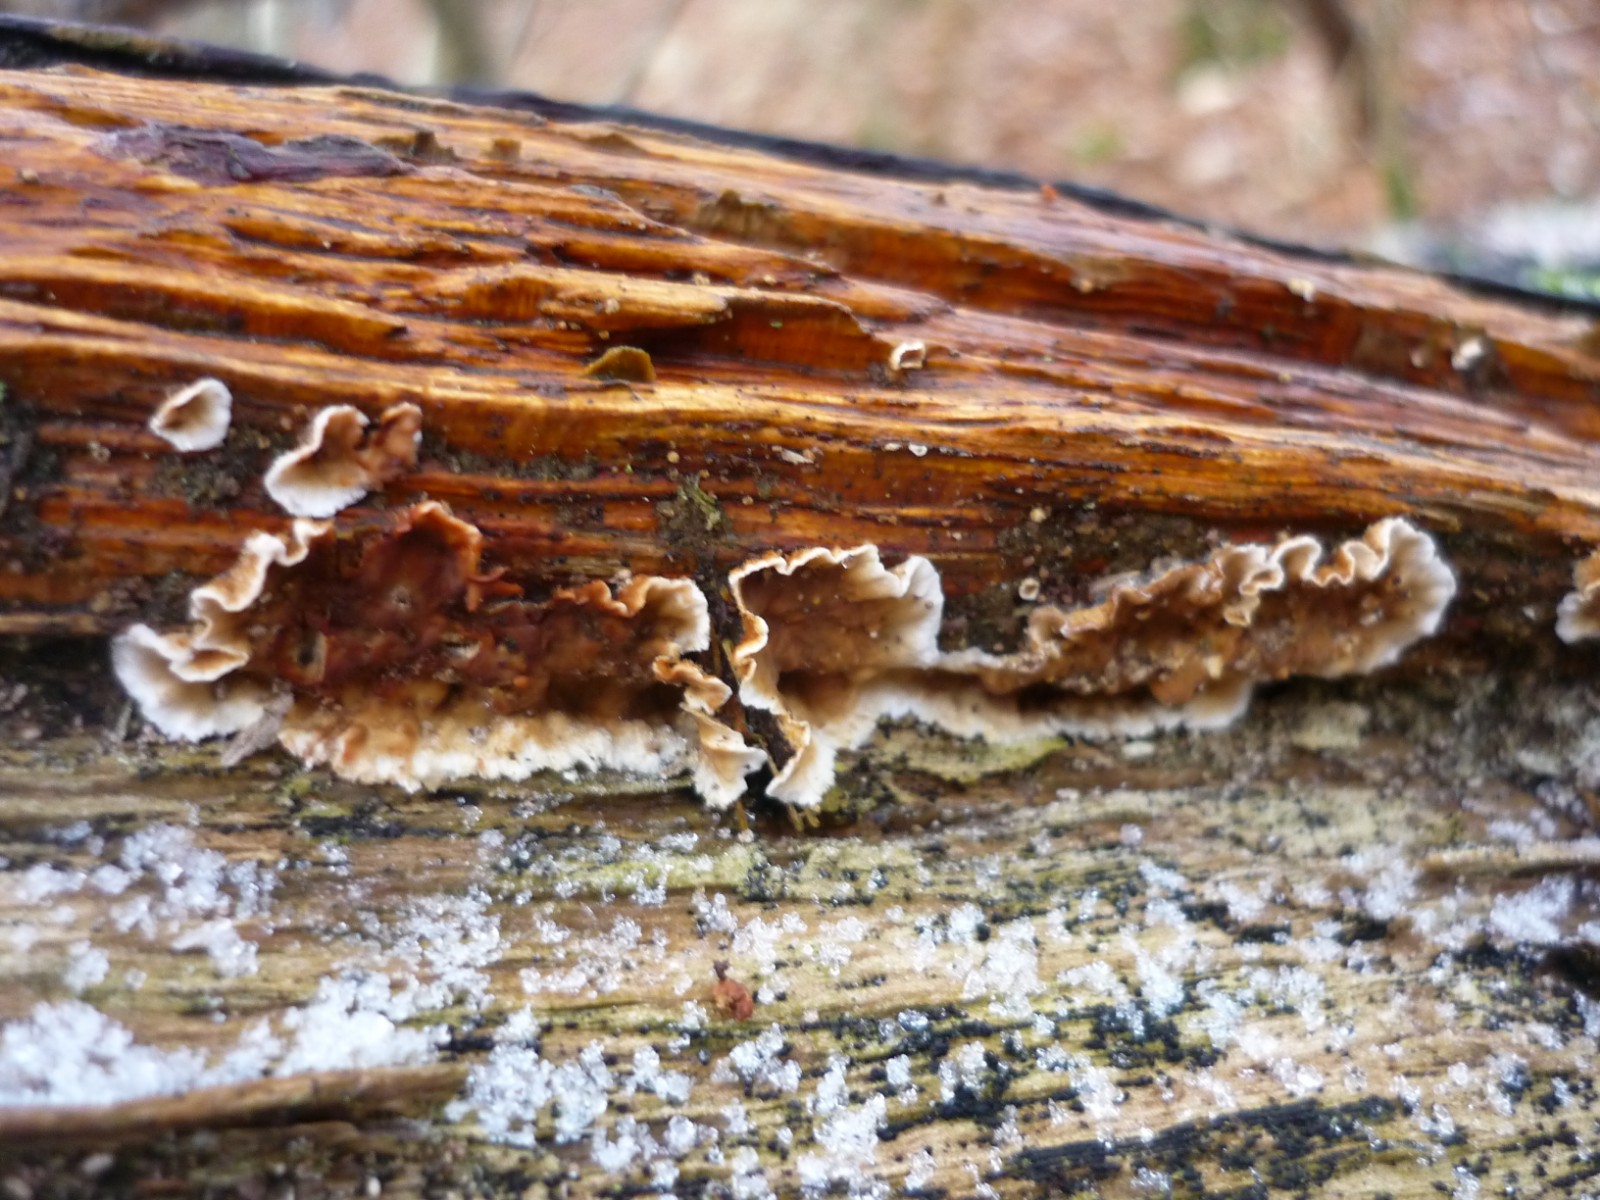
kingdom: Fungi
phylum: Basidiomycota
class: Agaricomycetes
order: Russulales
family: Stereaceae
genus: Stereum
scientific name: Stereum gausapatum
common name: tynd lædersvamp
